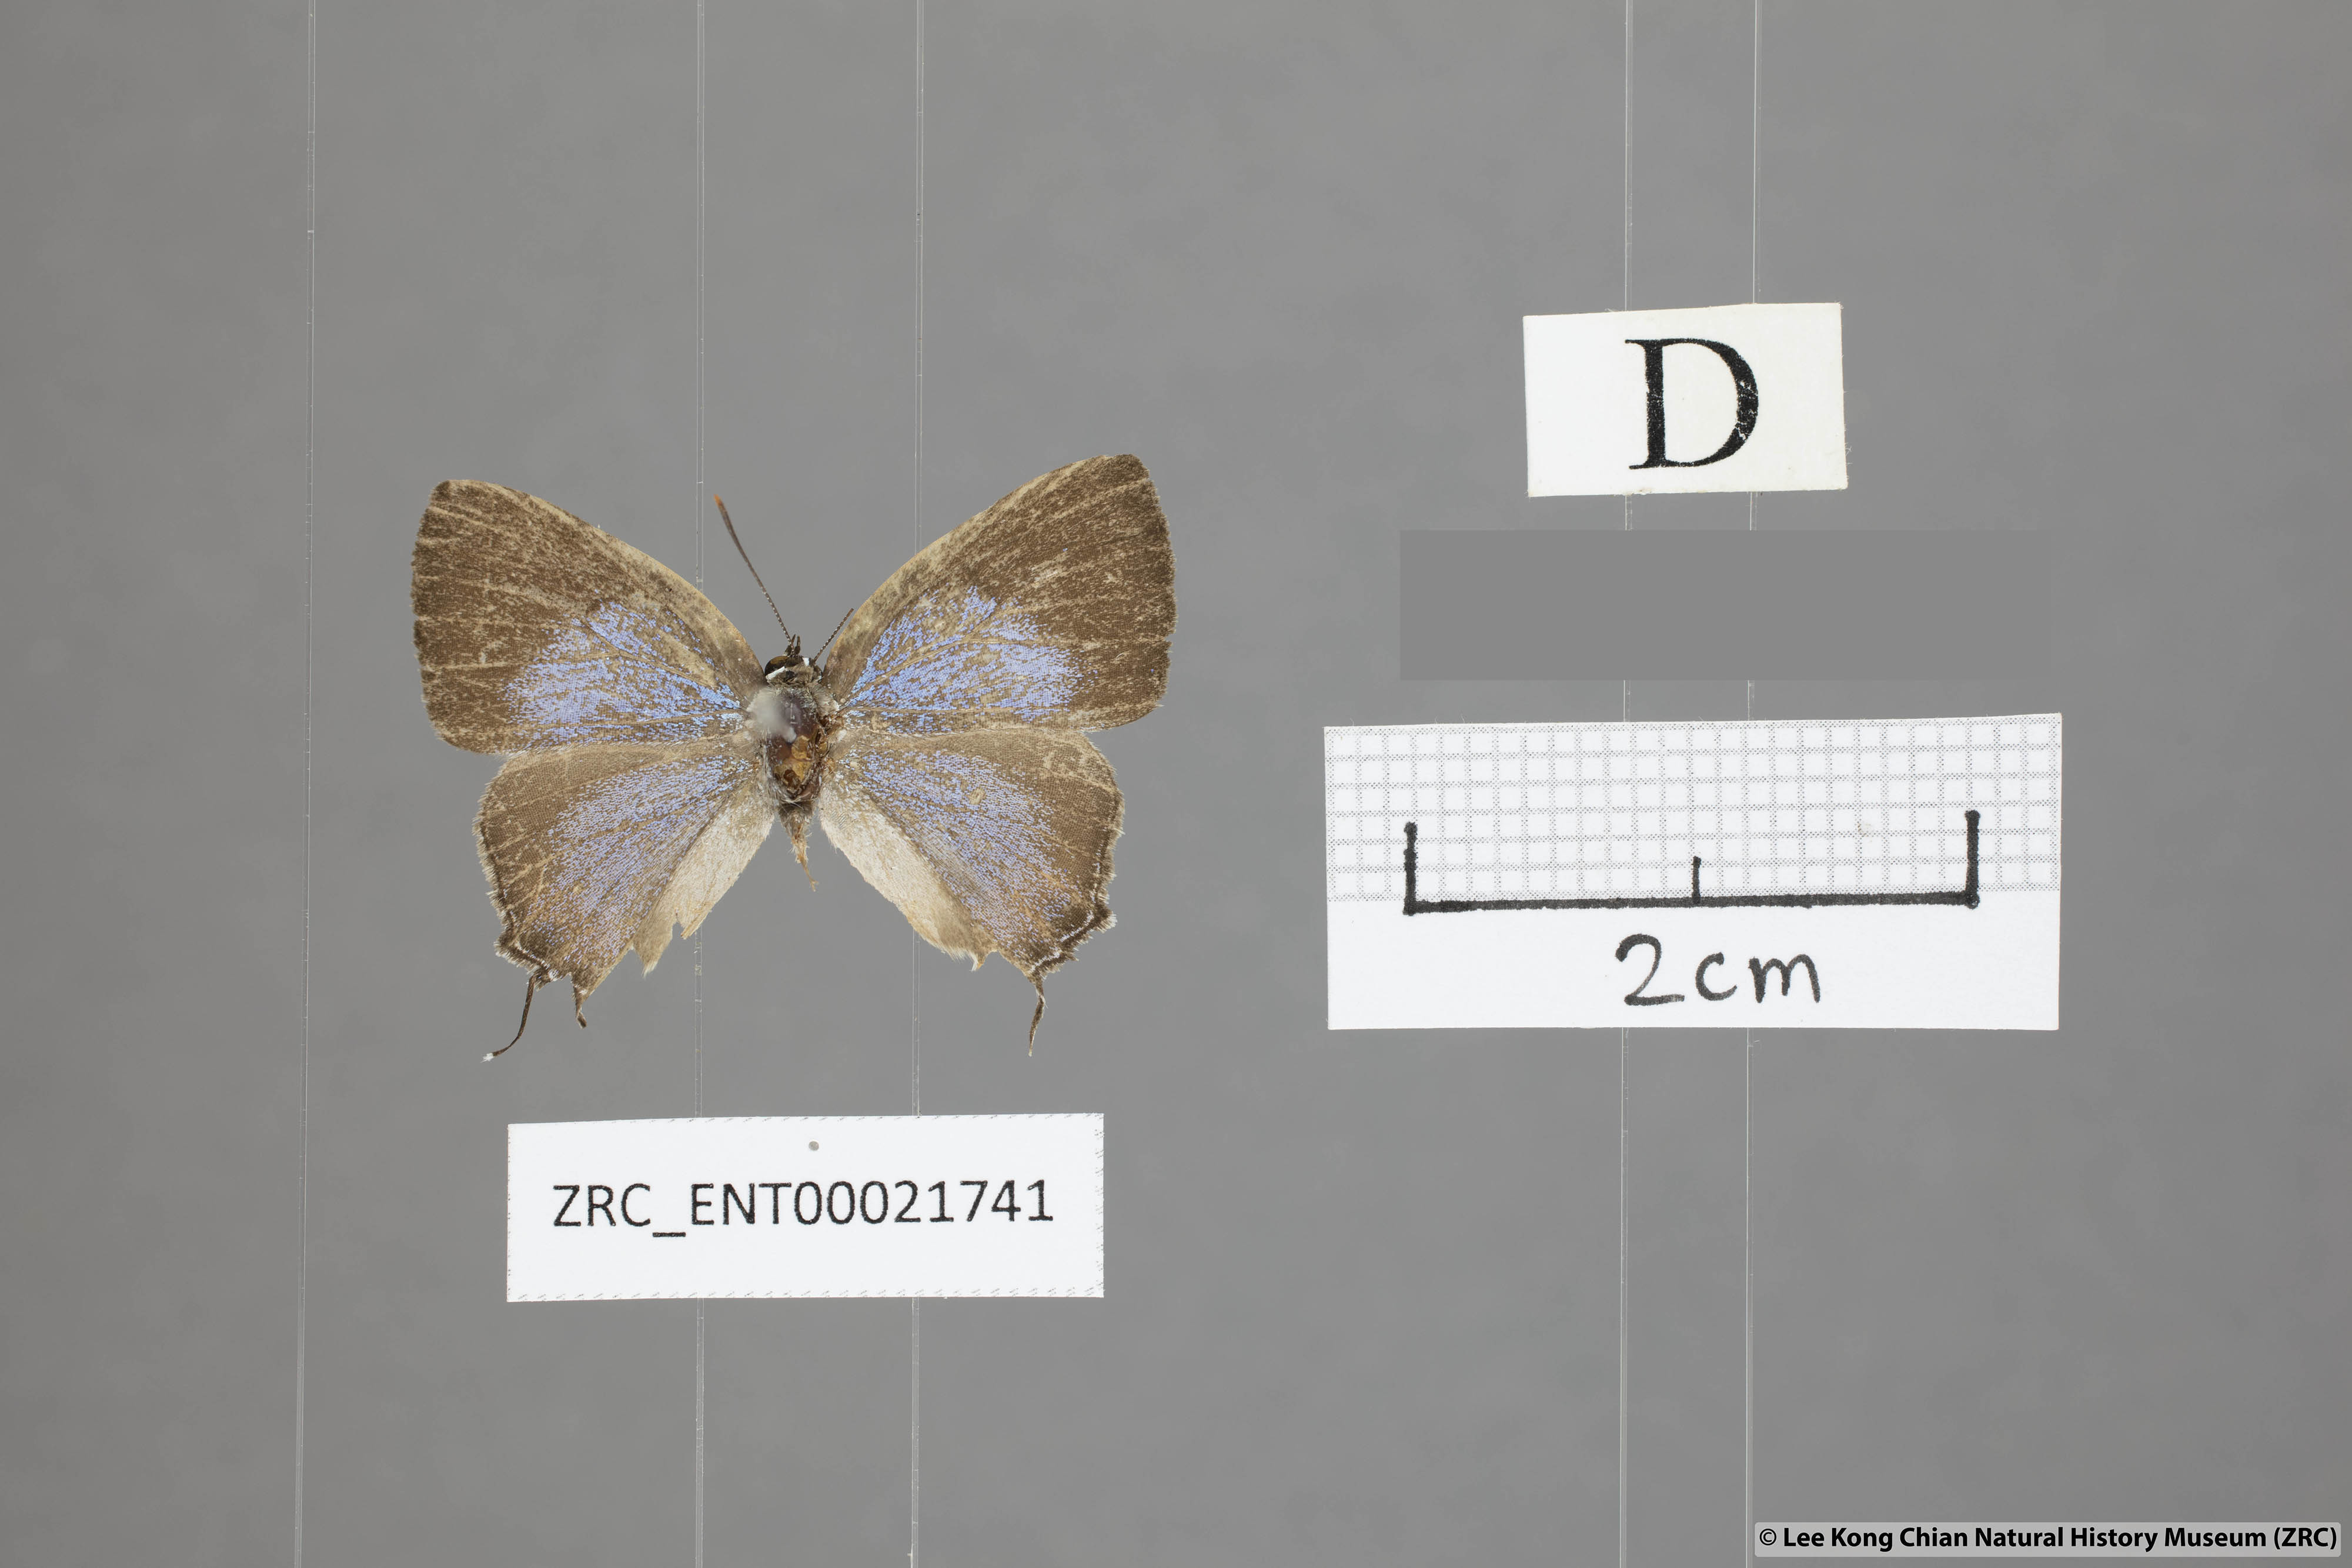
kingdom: Animalia
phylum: Arthropoda
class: Insecta
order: Lepidoptera
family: Lycaenidae
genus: Pratapa
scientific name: Pratapa icetas
